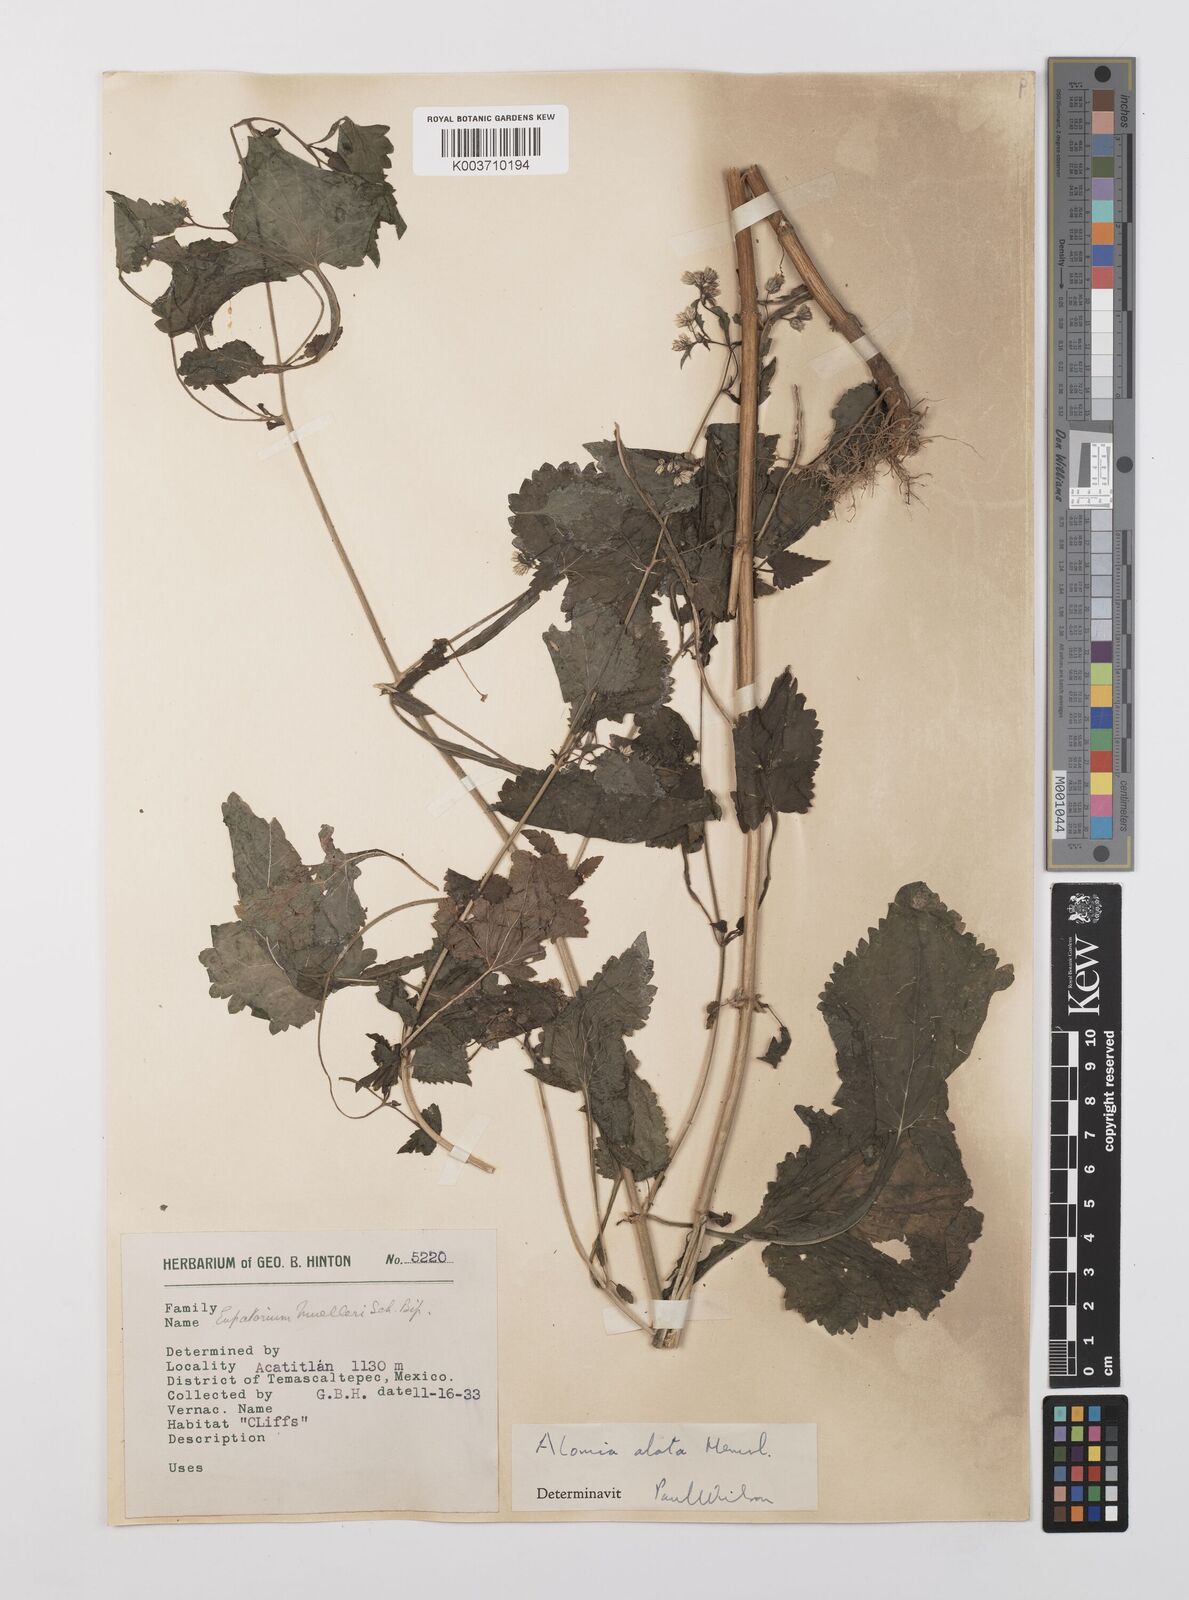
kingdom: Plantae
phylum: Tracheophyta
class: Magnoliopsida
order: Asterales
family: Asteraceae
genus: Alomia
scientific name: Alomia alata
